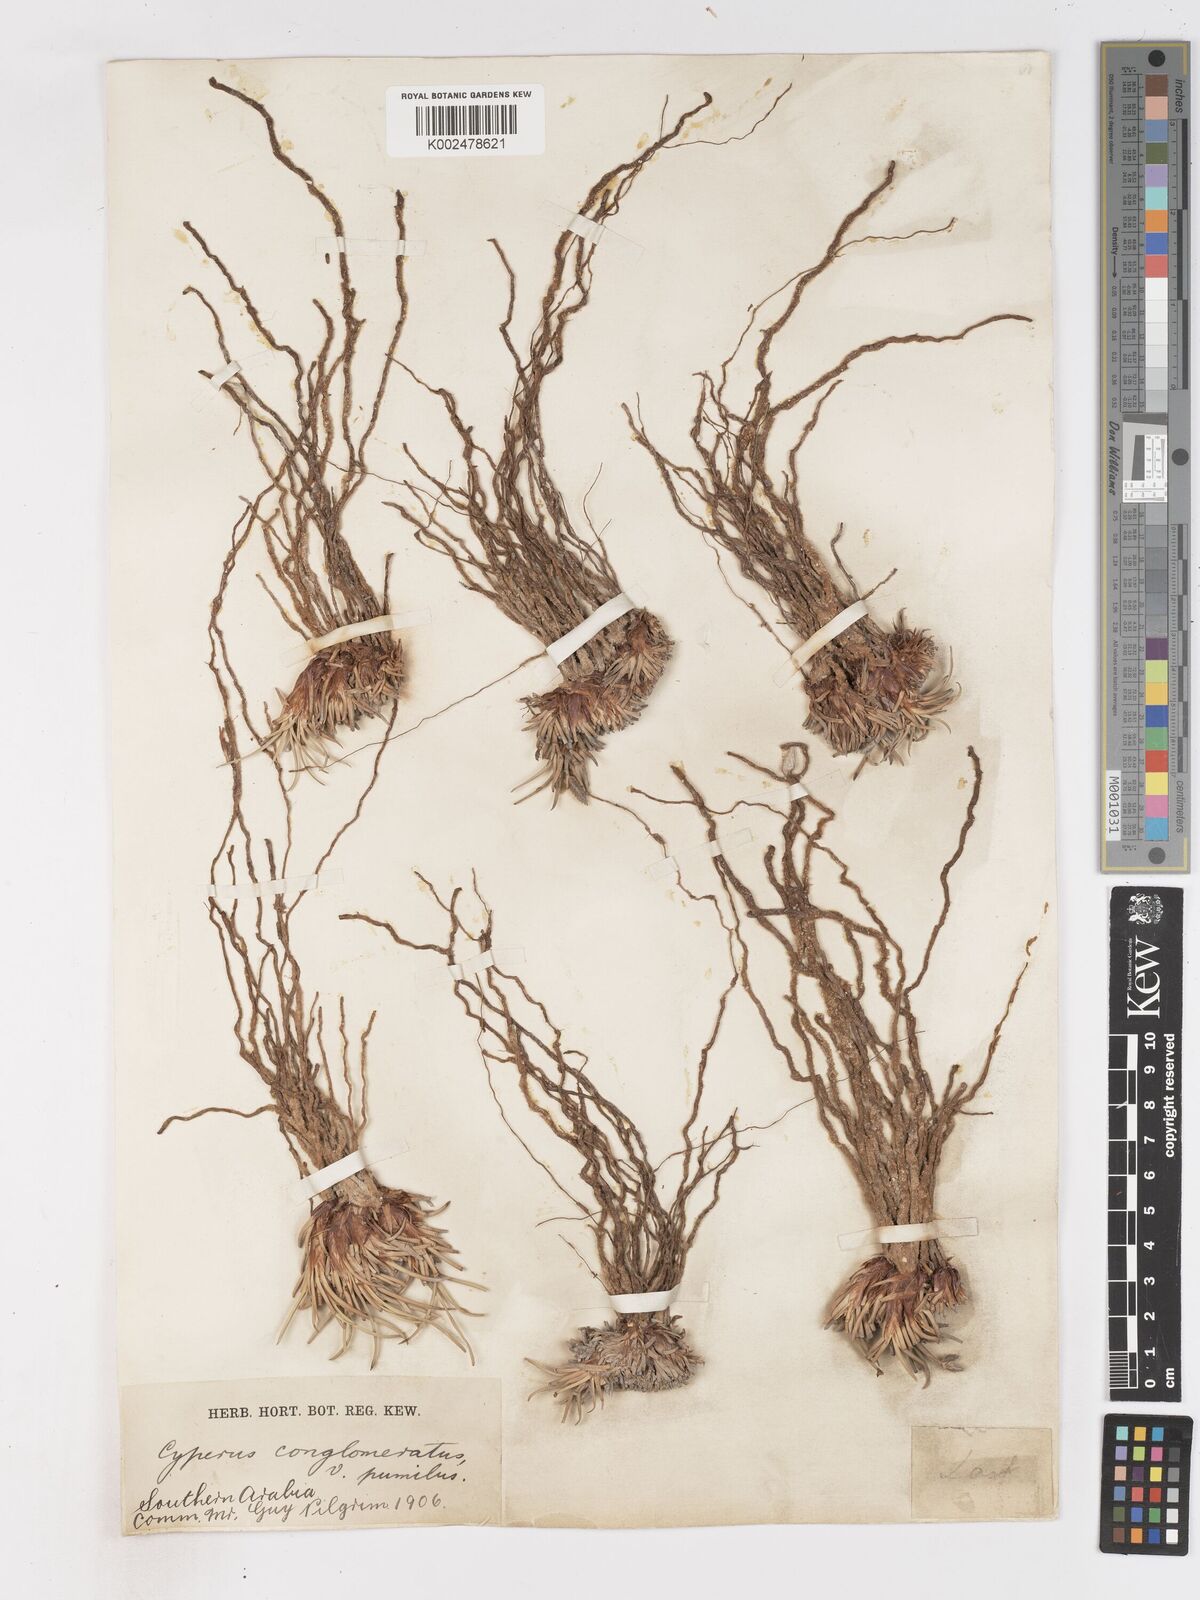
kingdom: Plantae
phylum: Tracheophyta
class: Liliopsida
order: Poales
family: Cyperaceae
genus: Cyperus
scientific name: Cyperus conglomeratus
